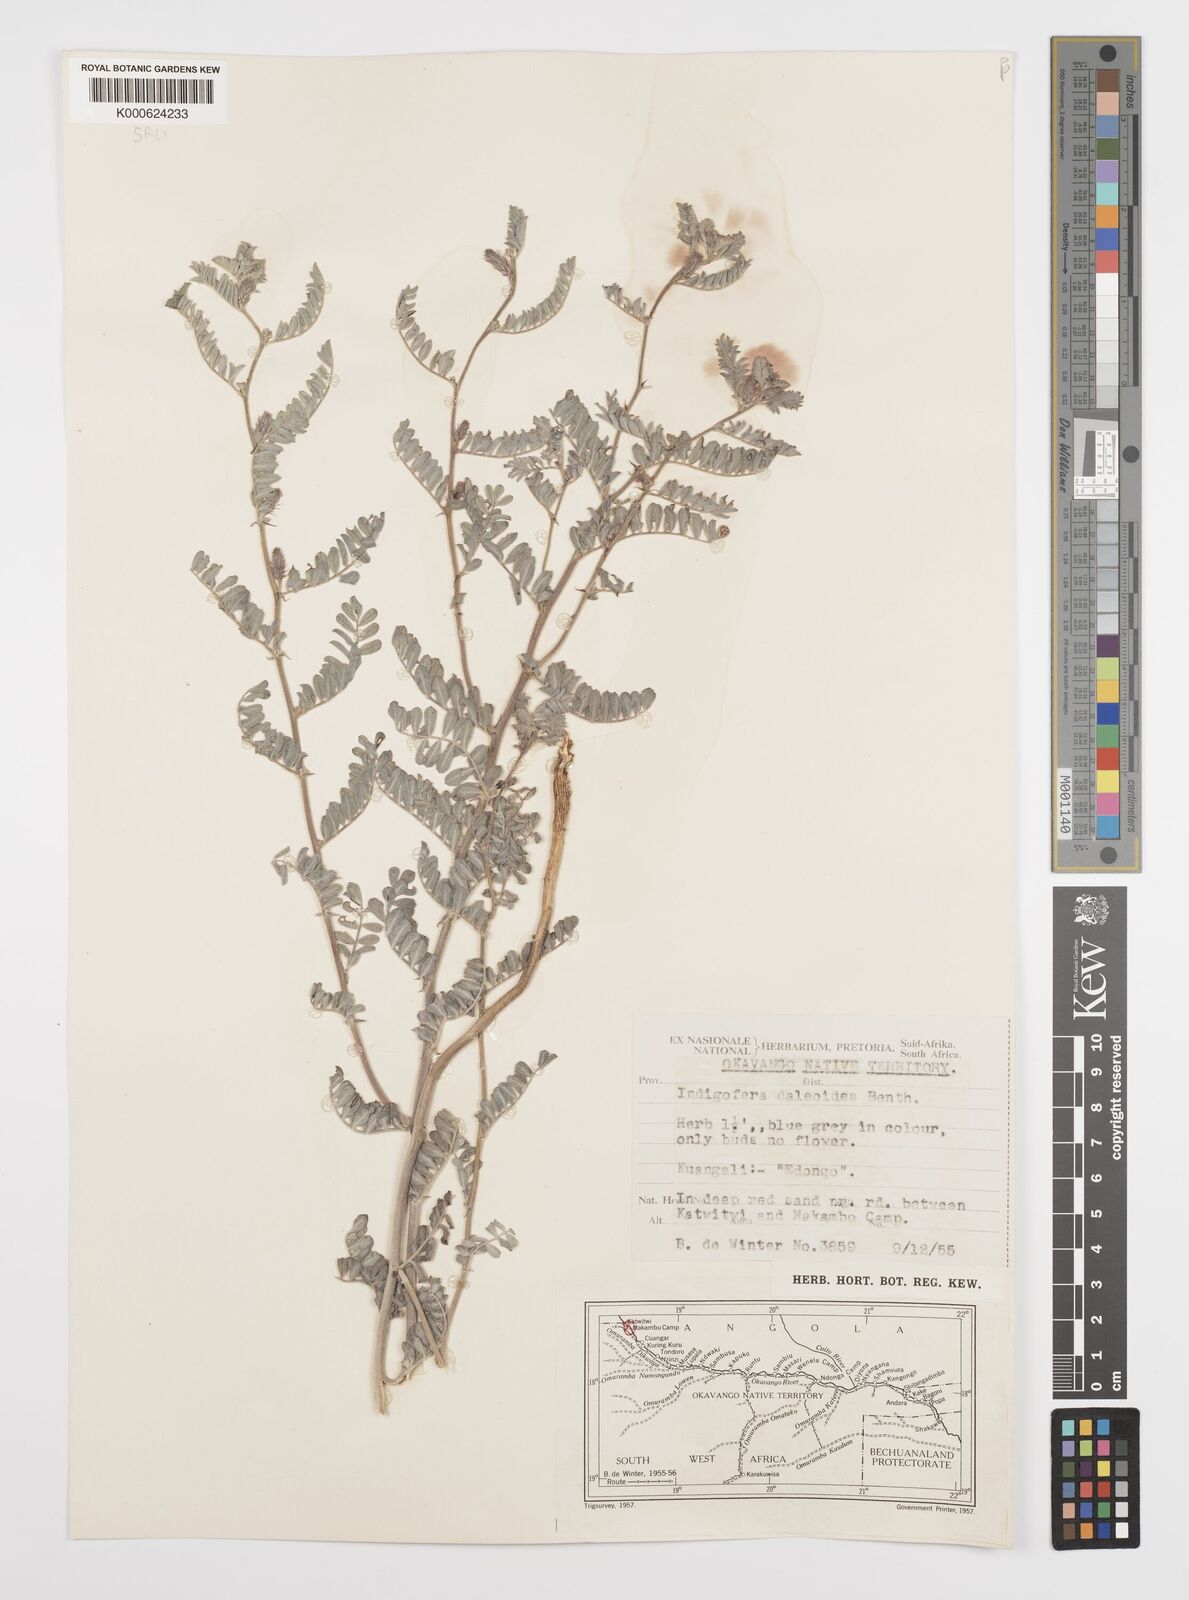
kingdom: Plantae
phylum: Tracheophyta
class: Magnoliopsida
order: Fabales
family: Fabaceae
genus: Indigofera
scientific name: Indigofera daleoides
